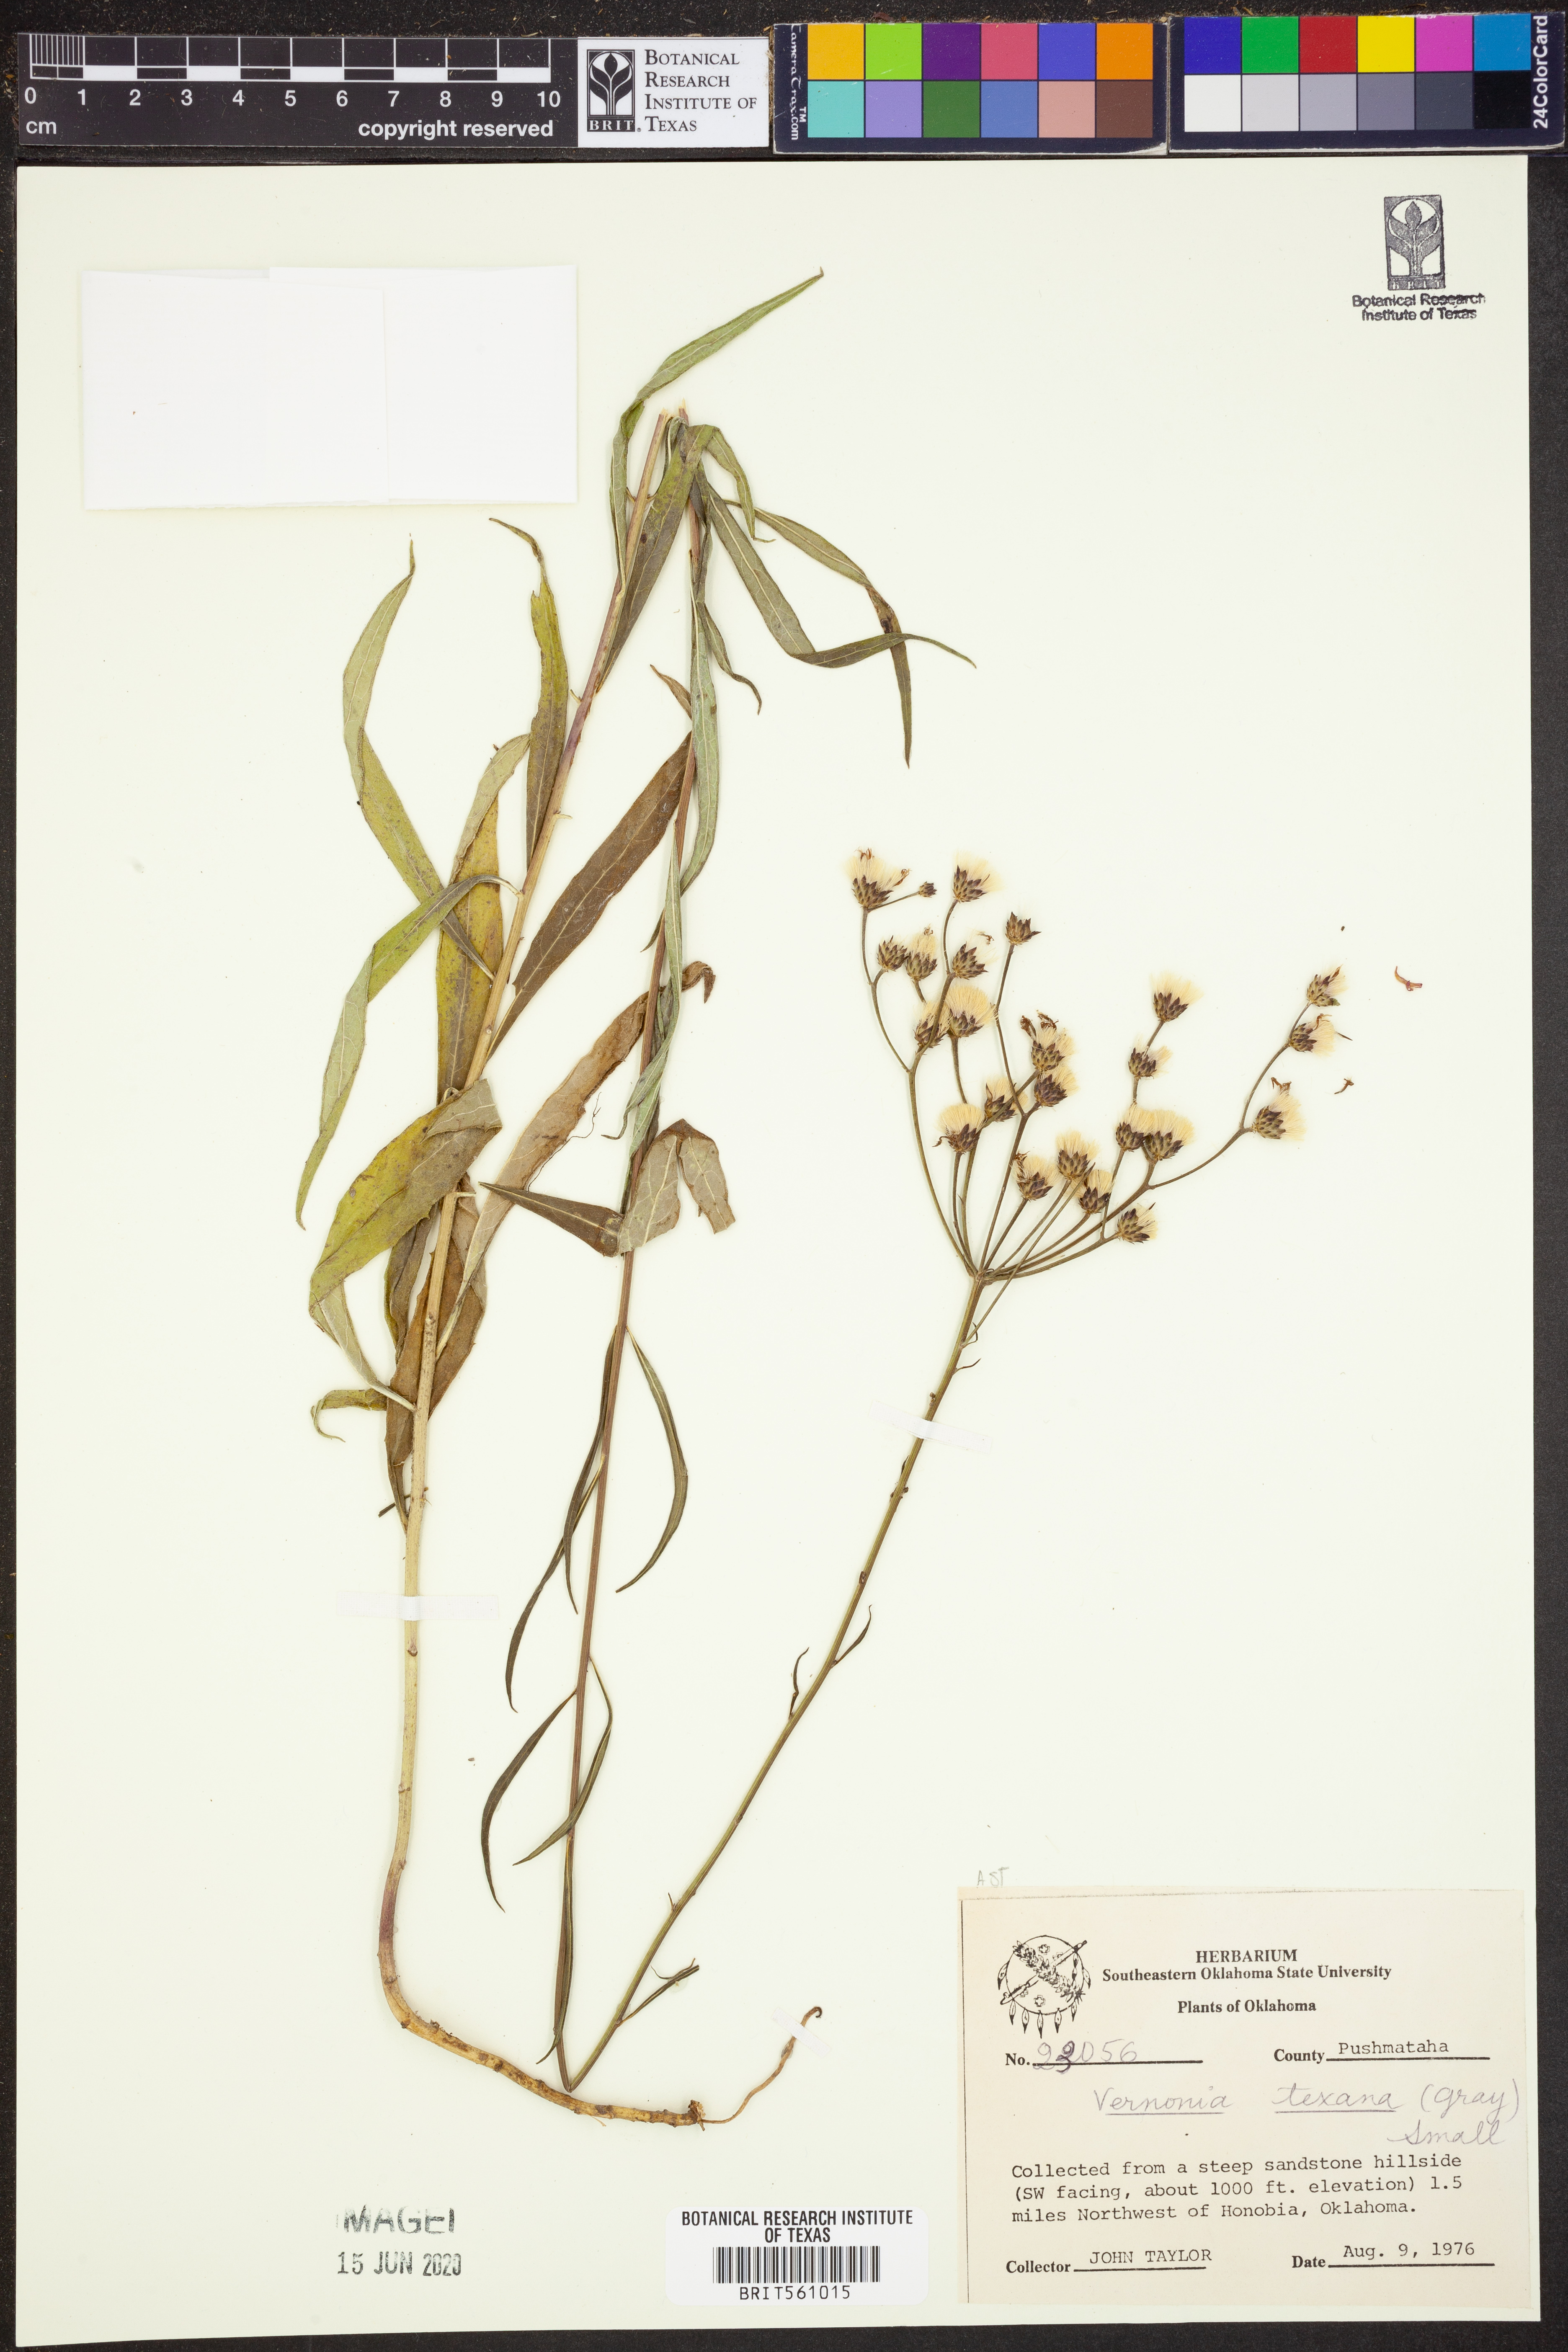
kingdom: Plantae
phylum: Tracheophyta
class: Magnoliopsida
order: Asterales
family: Asteraceae
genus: Vernonia
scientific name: Vernonia texana
